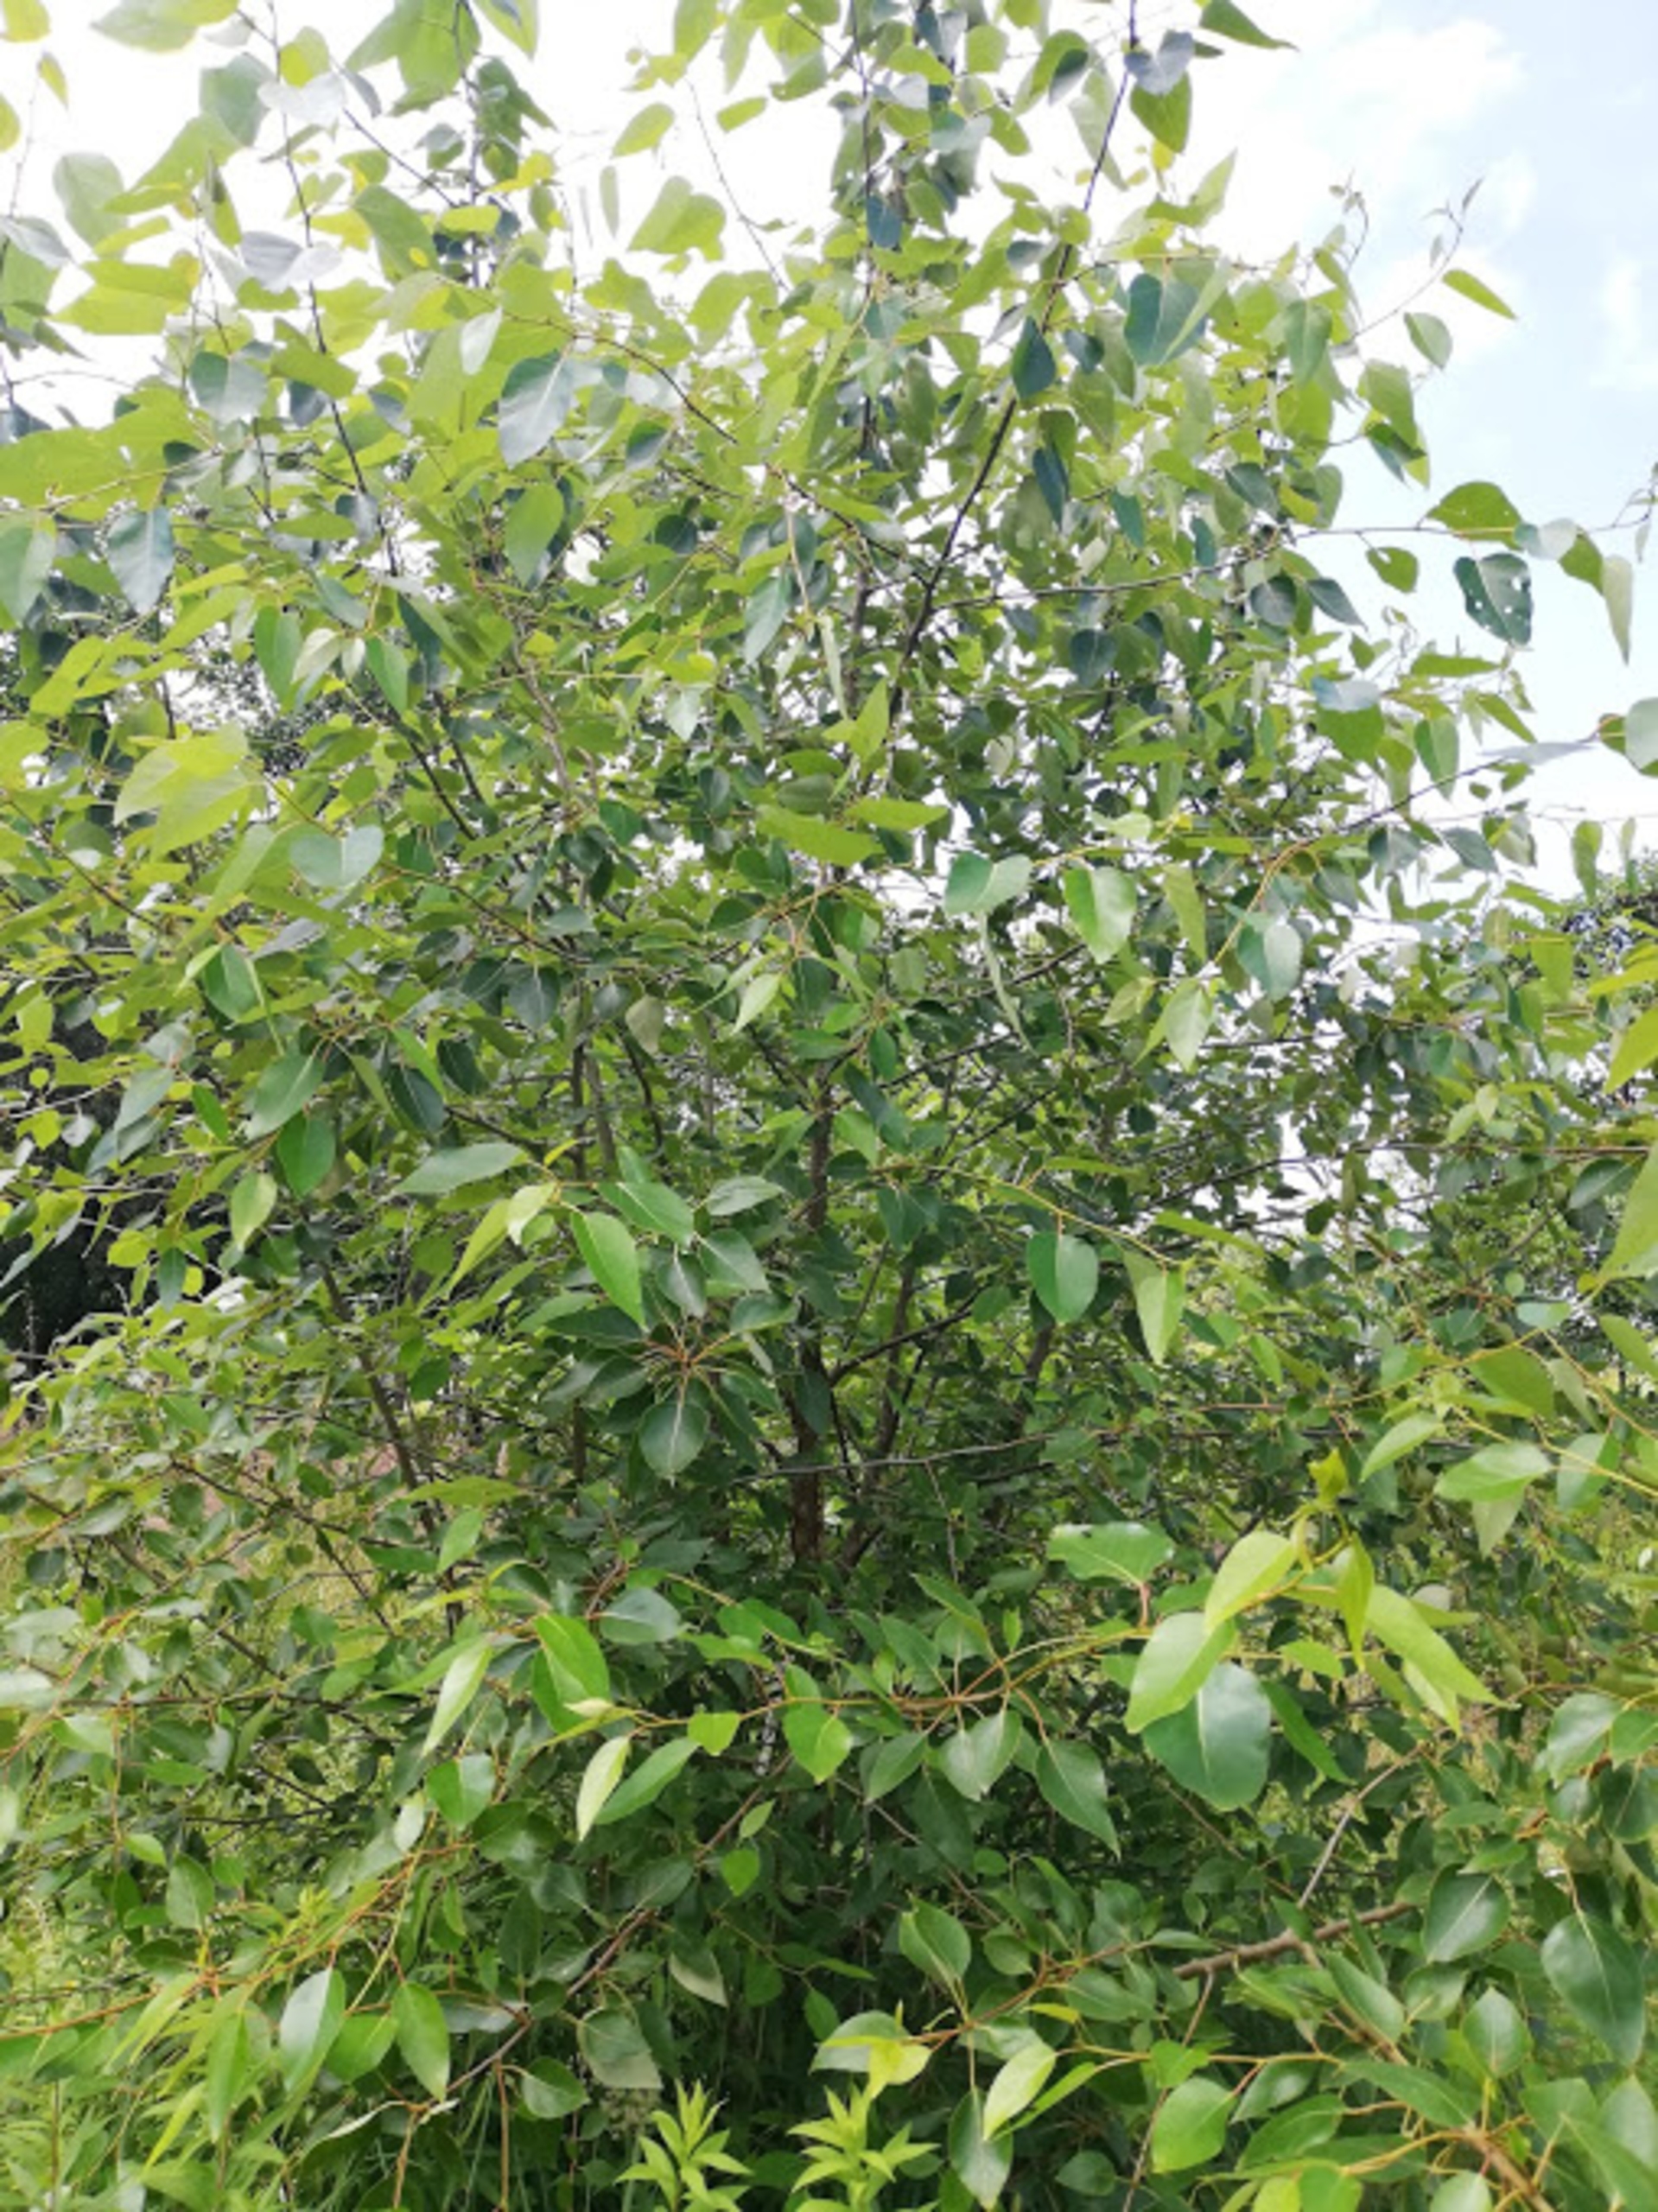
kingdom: Plantae
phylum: Tracheophyta
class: Magnoliopsida
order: Malpighiales
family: Salicaceae
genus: Populus
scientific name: Populus trichocarpa
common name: Vestamerikansk poppel
